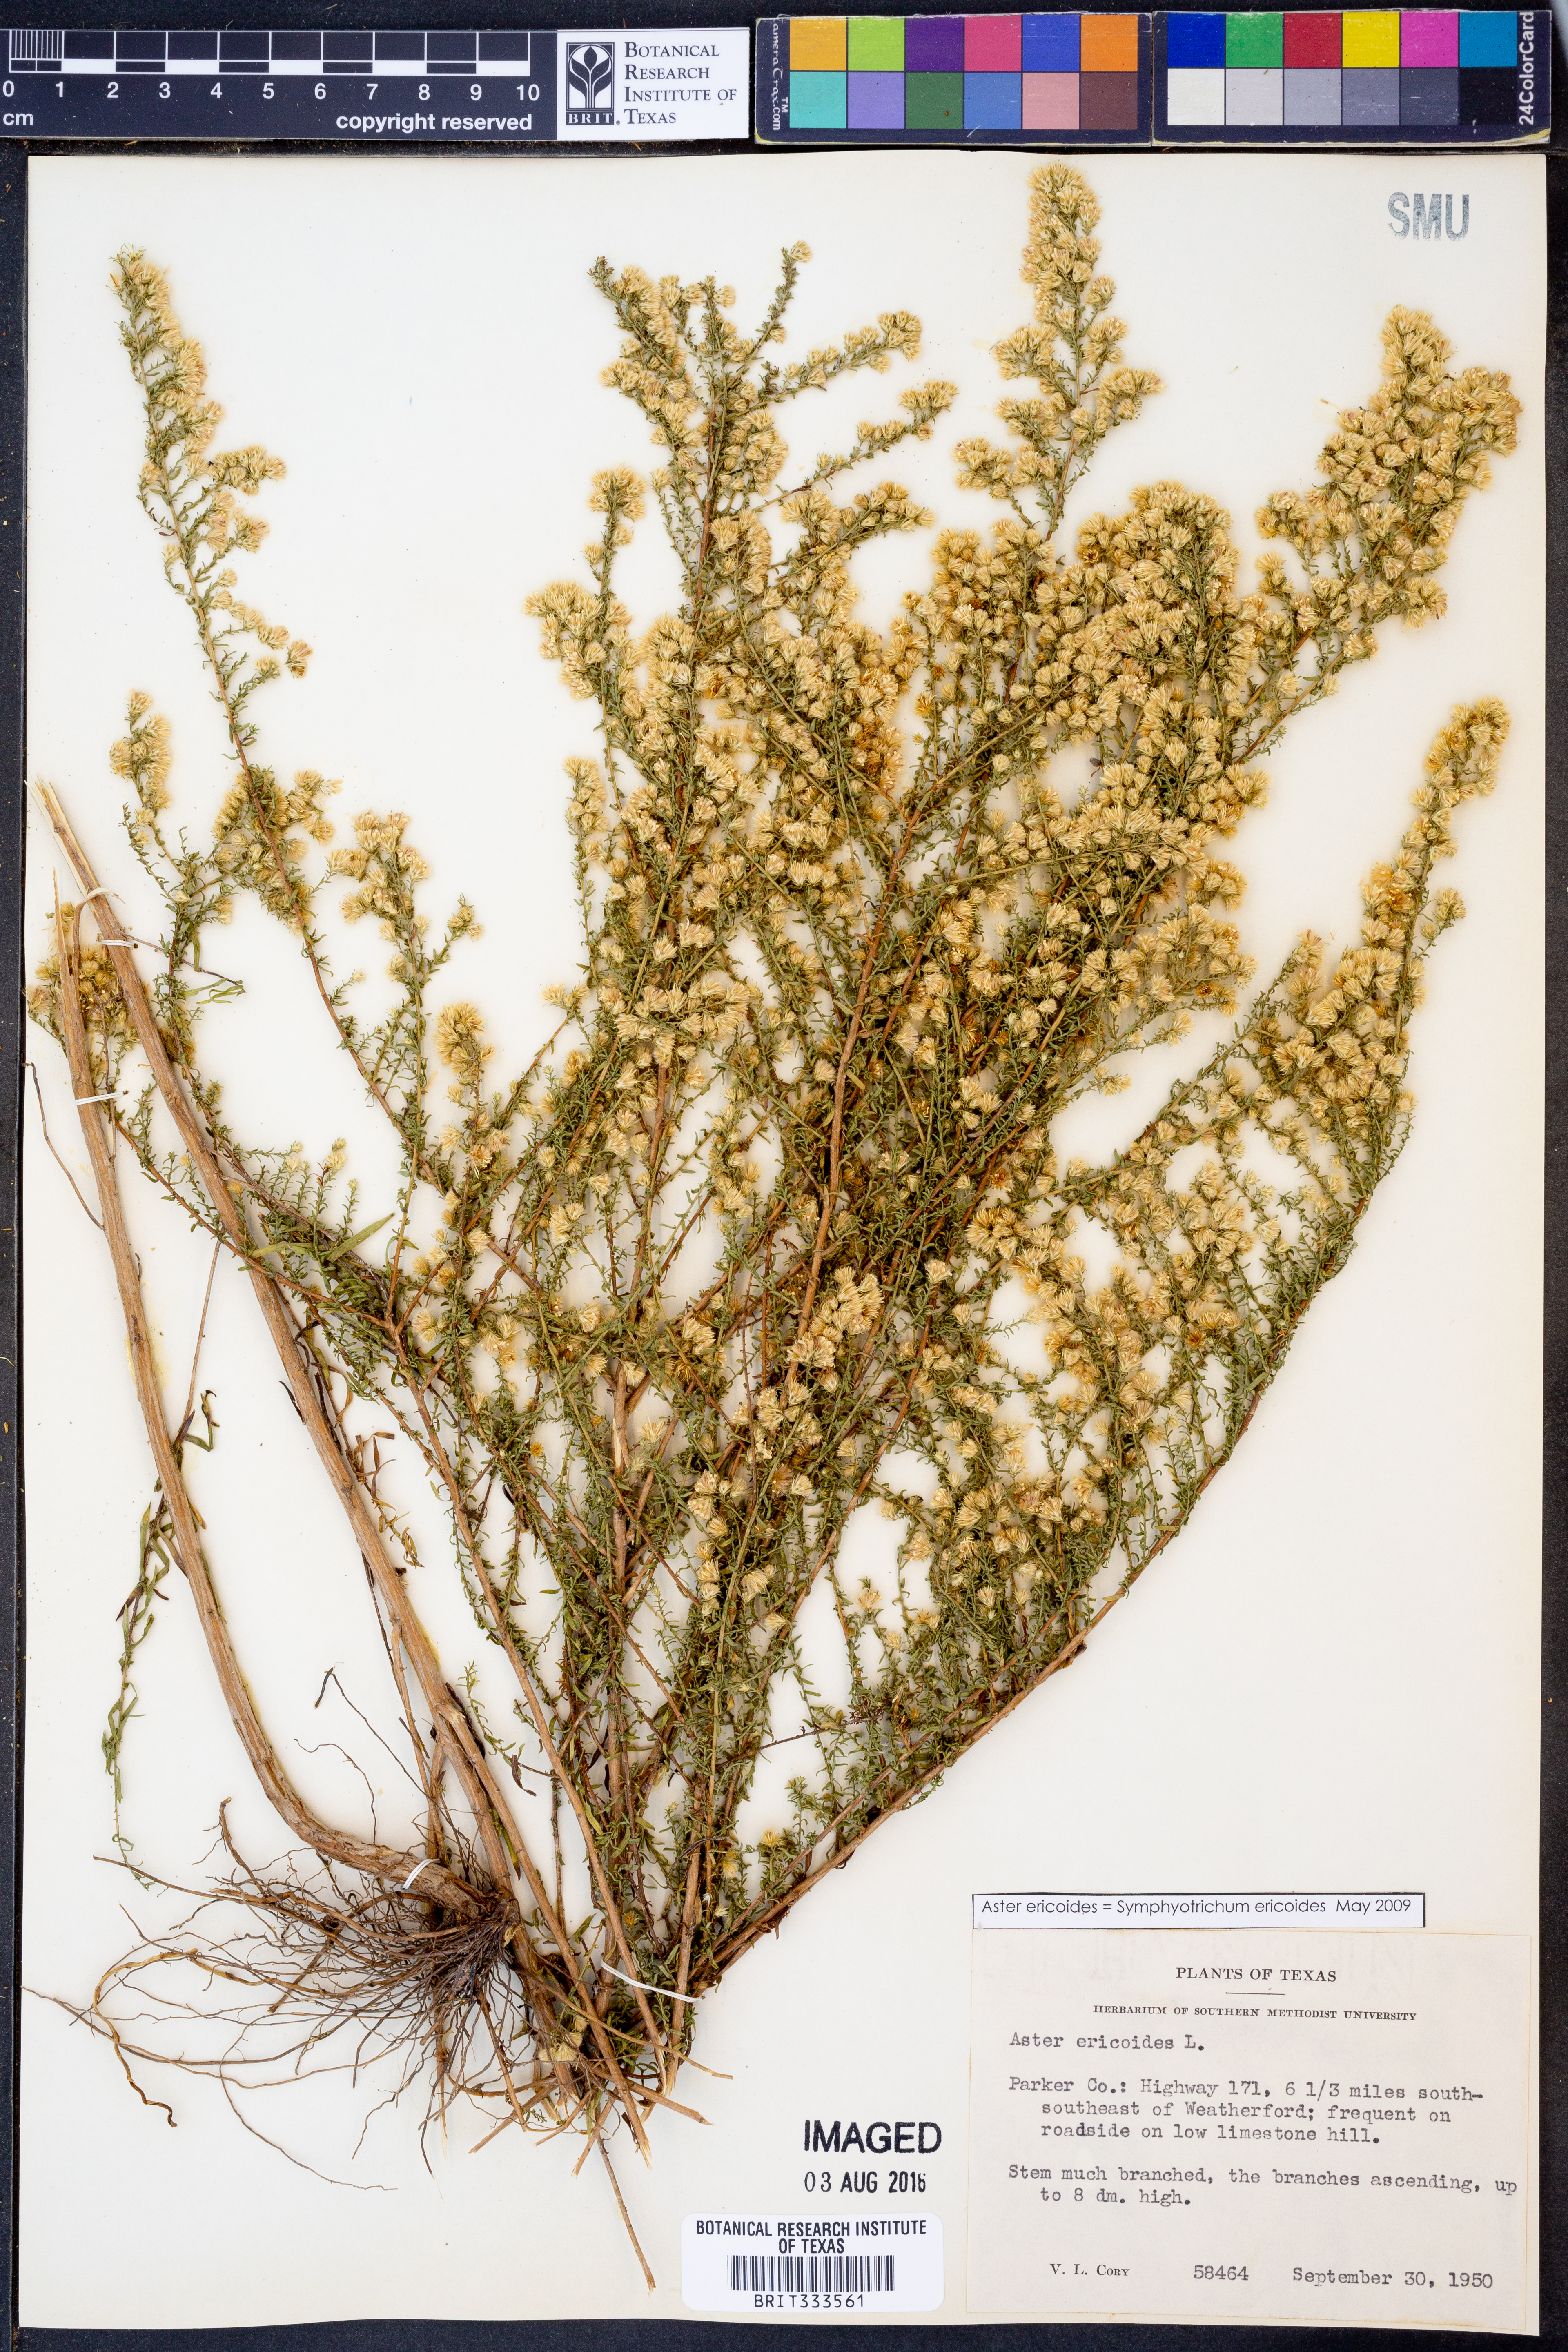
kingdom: Plantae
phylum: Tracheophyta
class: Magnoliopsida
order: Asterales
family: Asteraceae
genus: Symphyotrichum
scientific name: Symphyotrichum ericoides
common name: Heath aster
